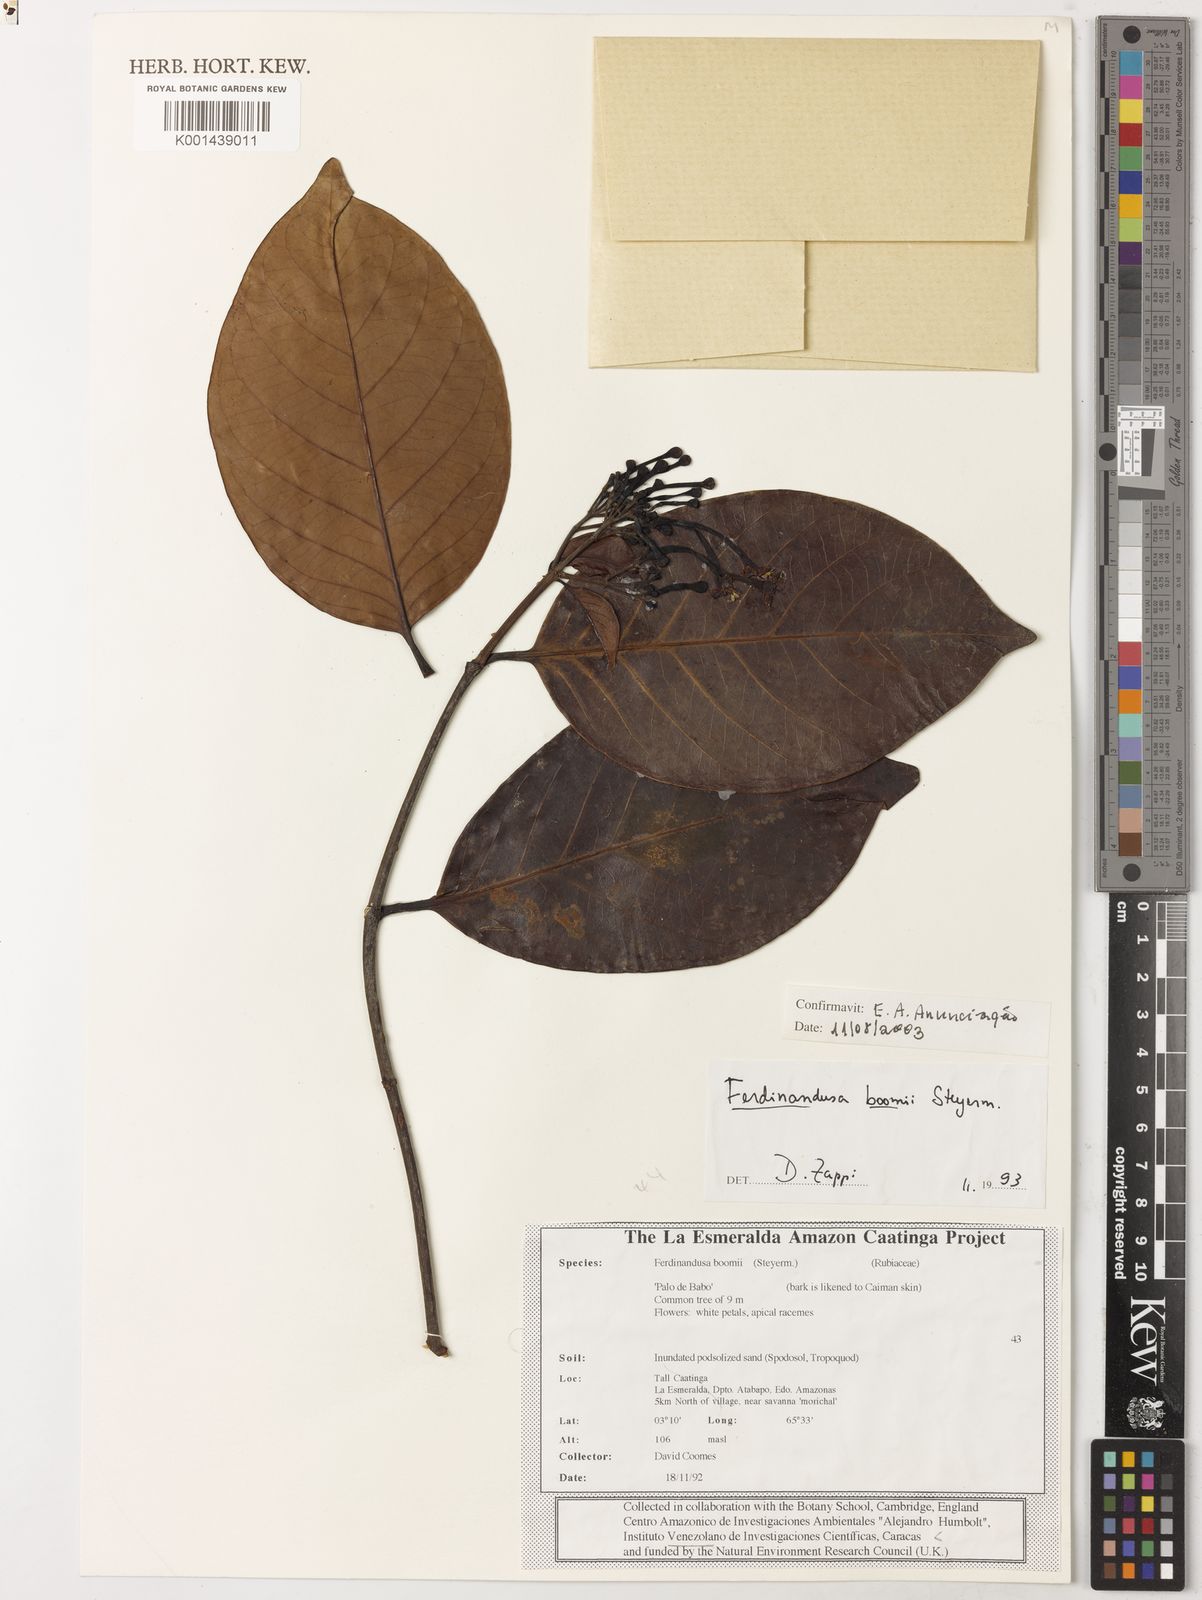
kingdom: Plantae
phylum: Tracheophyta
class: Magnoliopsida
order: Gentianales
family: Rubiaceae
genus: Ferdinandusa
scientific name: Ferdinandusa boomii
